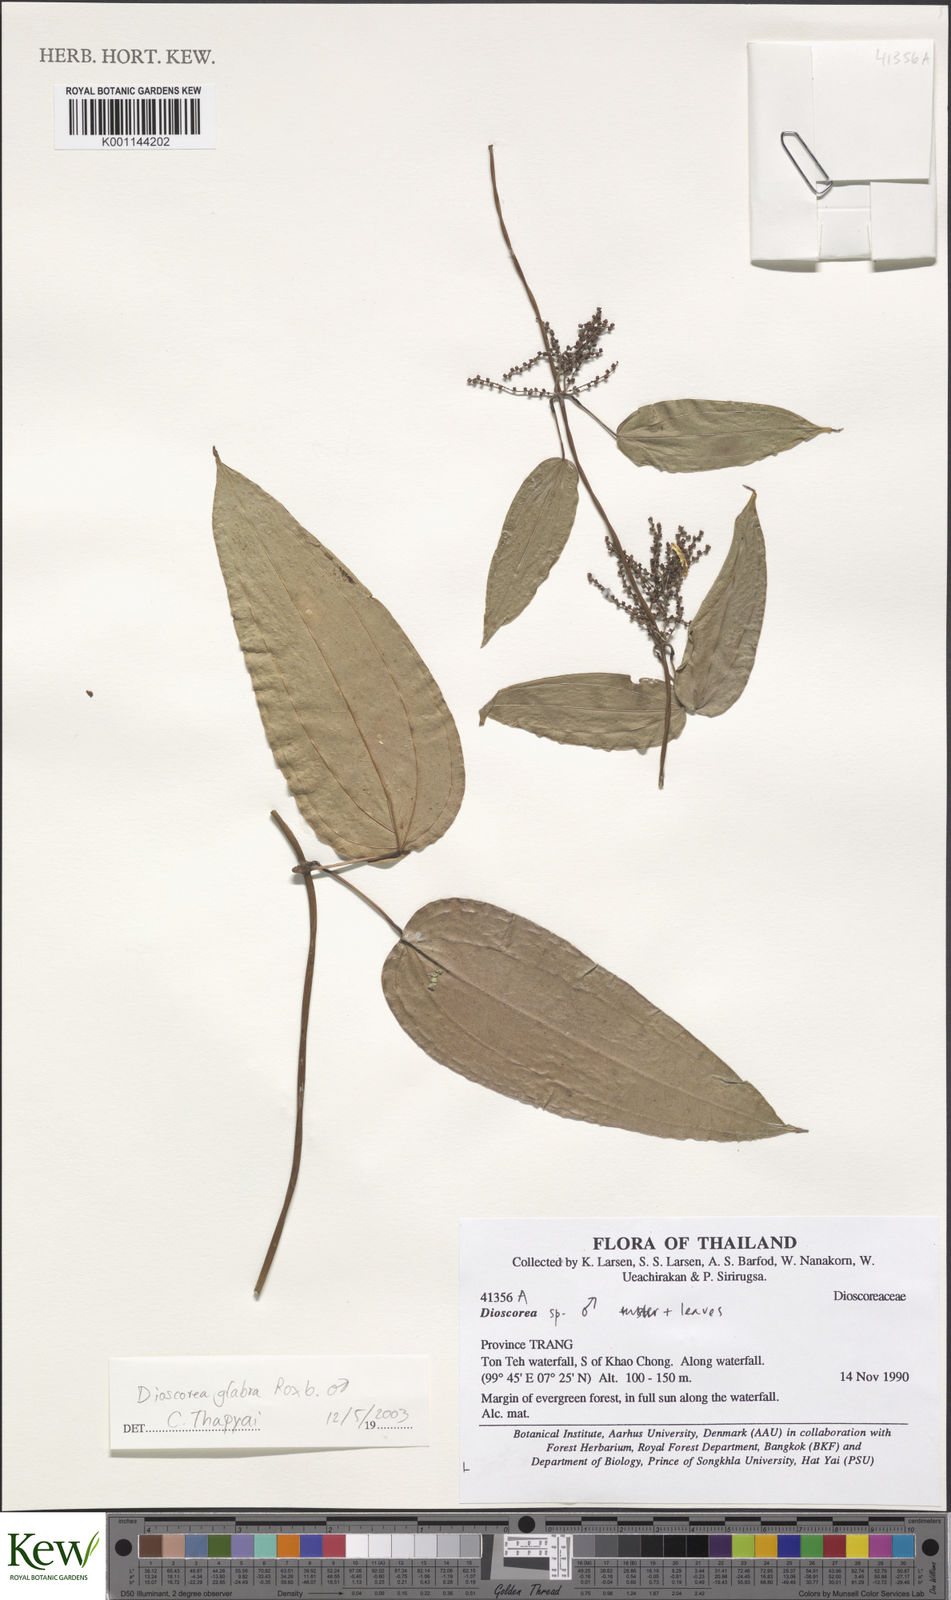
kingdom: Plantae
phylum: Tracheophyta
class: Liliopsida
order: Dioscoreales
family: Dioscoreaceae
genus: Dioscorea
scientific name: Dioscorea
